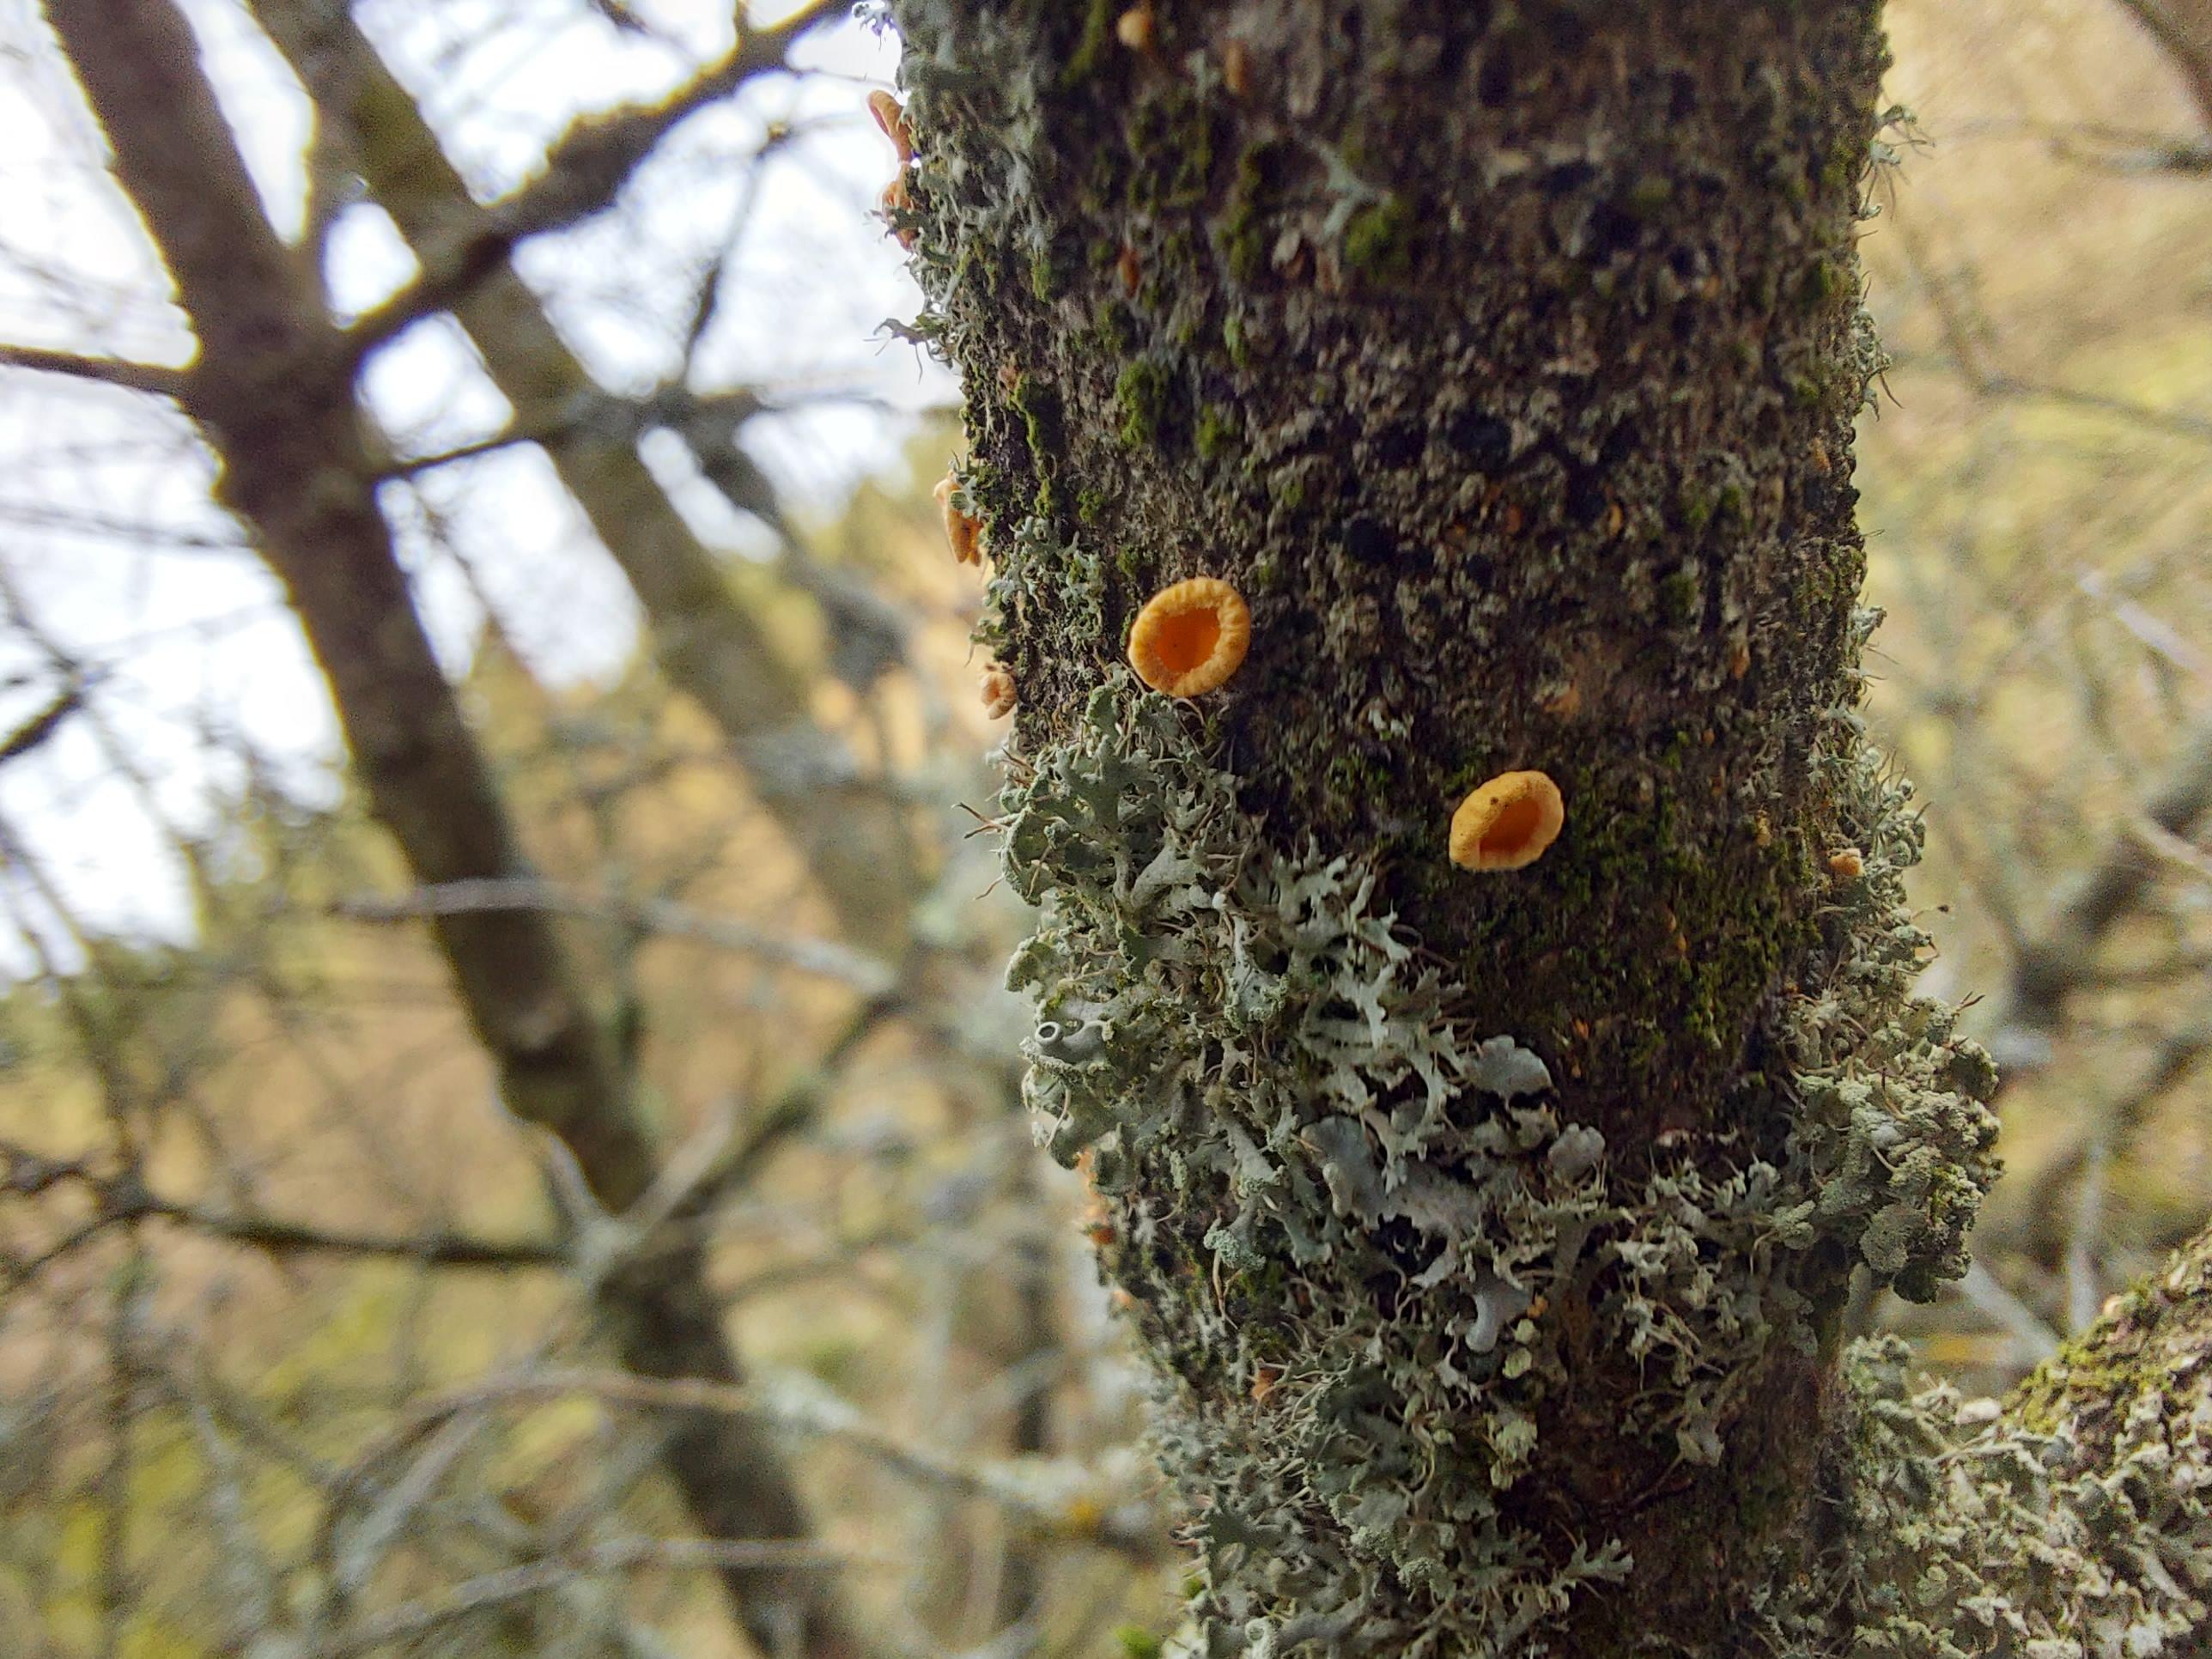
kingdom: Fungi
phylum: Ascomycota
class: Leotiomycetes
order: Helotiales
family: Lachnaceae
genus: Lachnellula
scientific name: Lachnellula
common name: frynseskive
